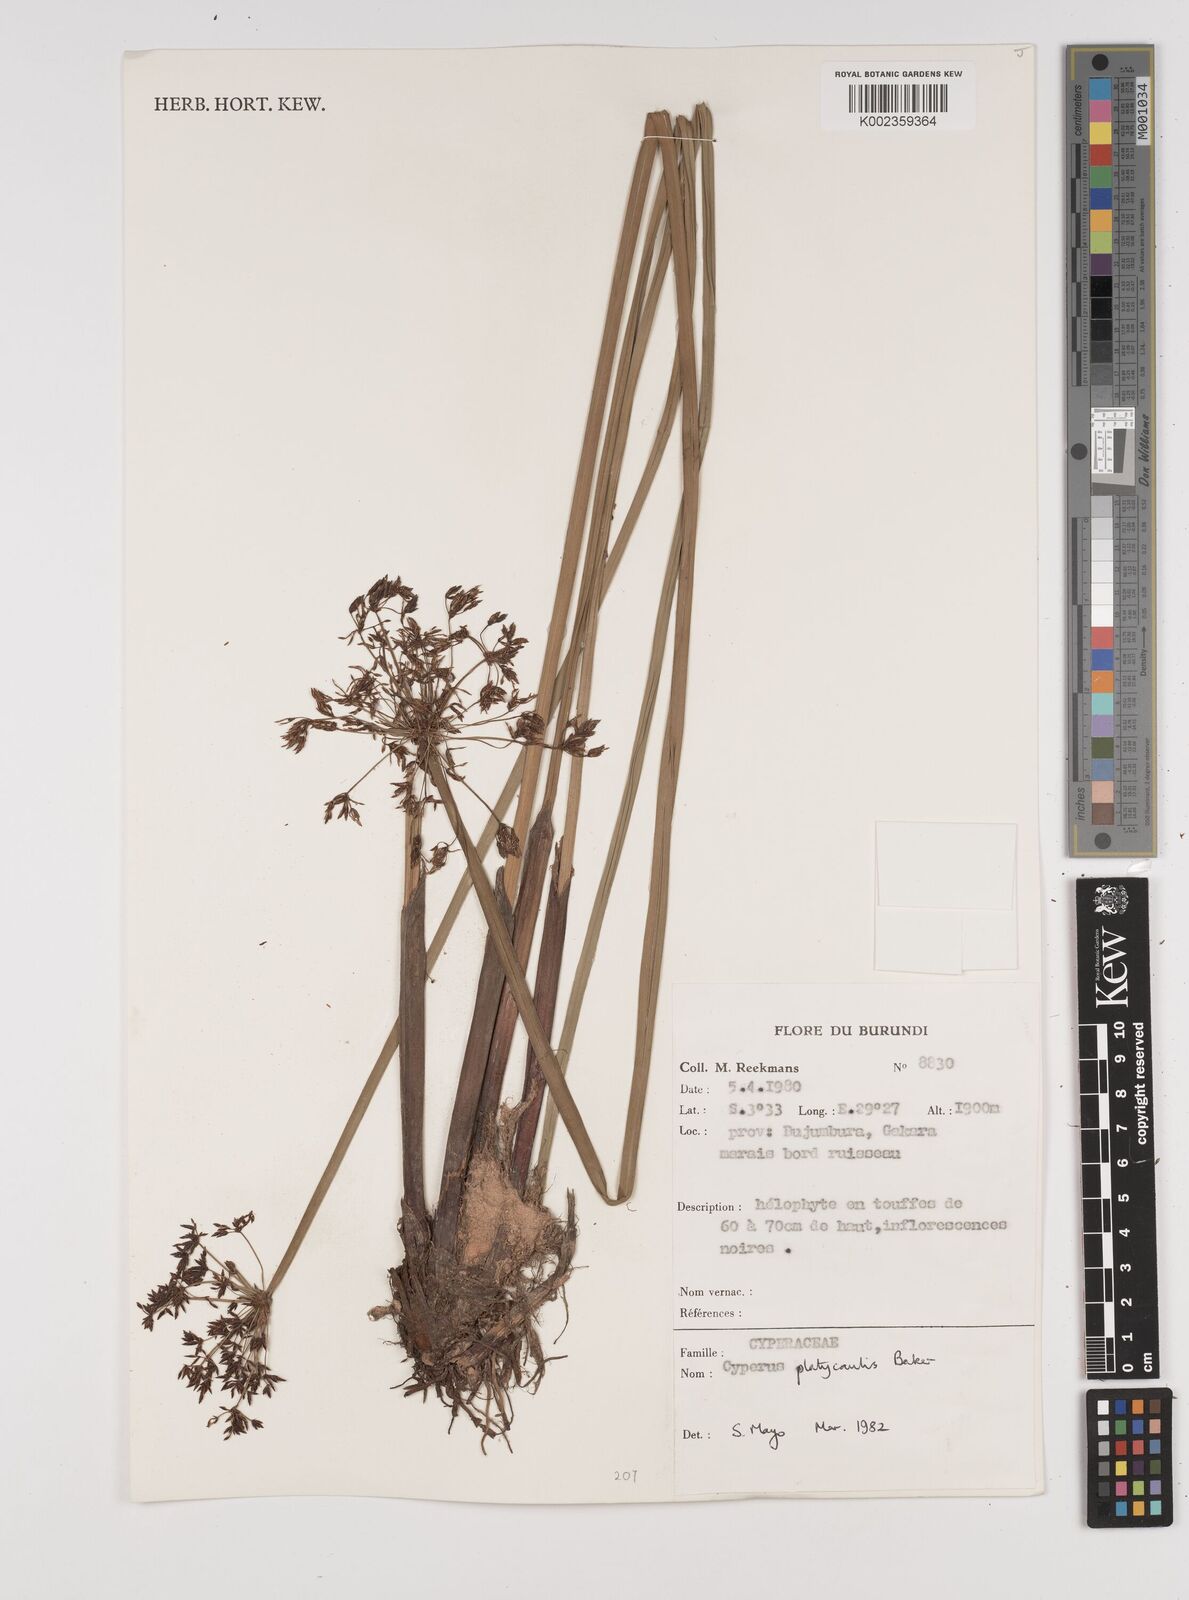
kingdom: Plantae
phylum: Tracheophyta
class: Liliopsida
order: Poales
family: Cyperaceae
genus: Cyperus
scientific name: Cyperus platycaulis
